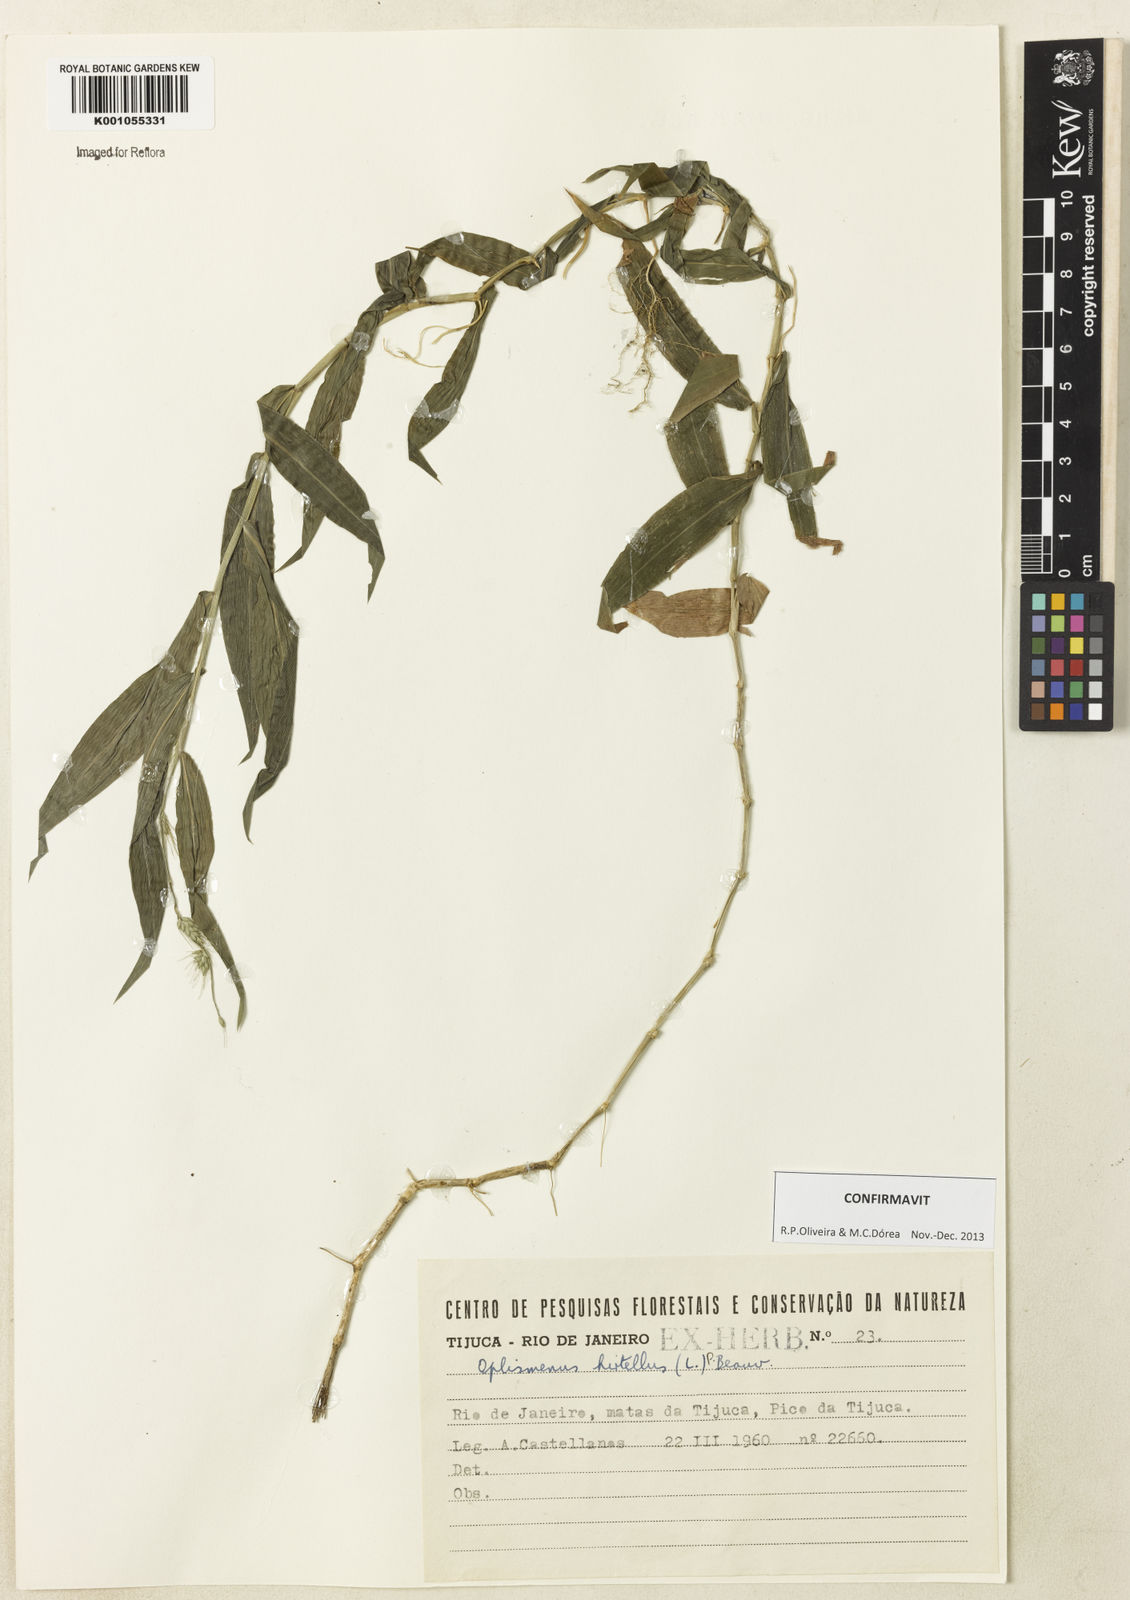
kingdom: Plantae
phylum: Tracheophyta
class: Liliopsida
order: Poales
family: Poaceae
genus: Oplismenus
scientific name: Oplismenus hirtellus
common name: Basketgrass
